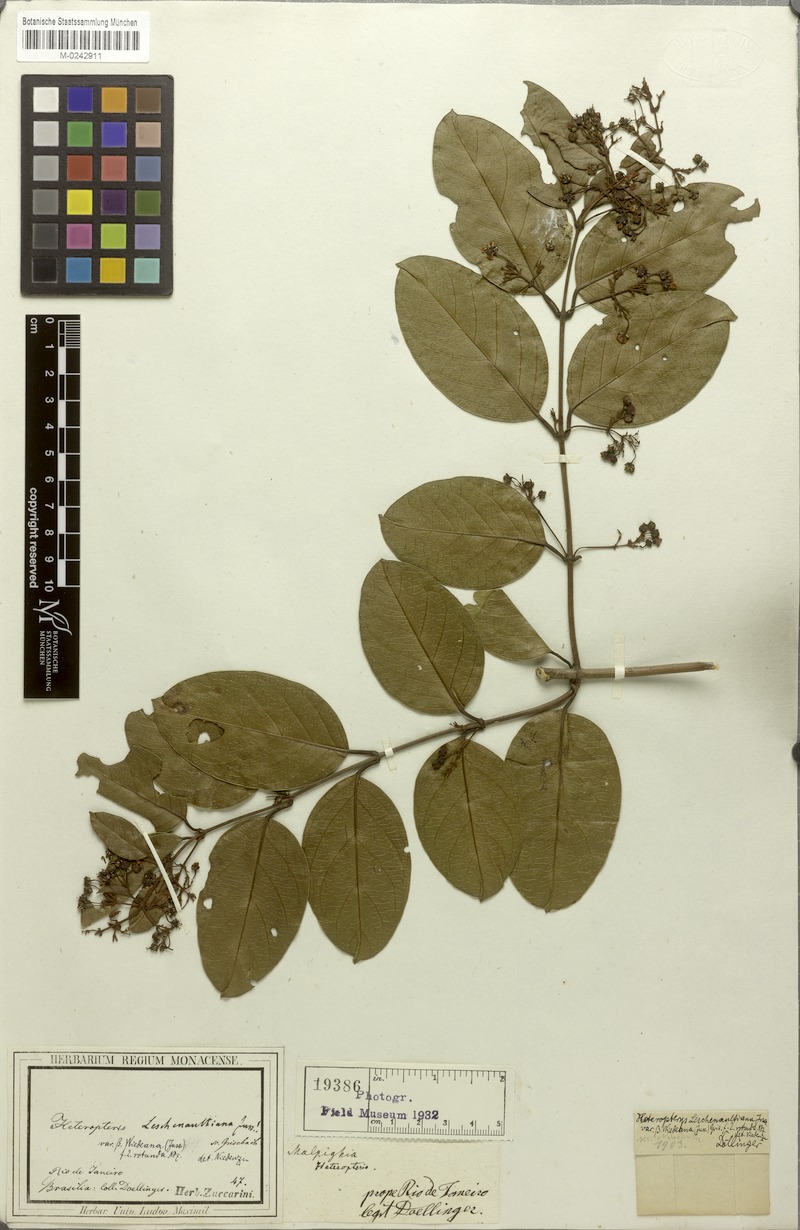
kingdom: Plantae
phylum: Tracheophyta
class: Magnoliopsida
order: Malpighiales
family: Malpighiaceae
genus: Heteropterys
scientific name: Heteropterys leschenaultiana
